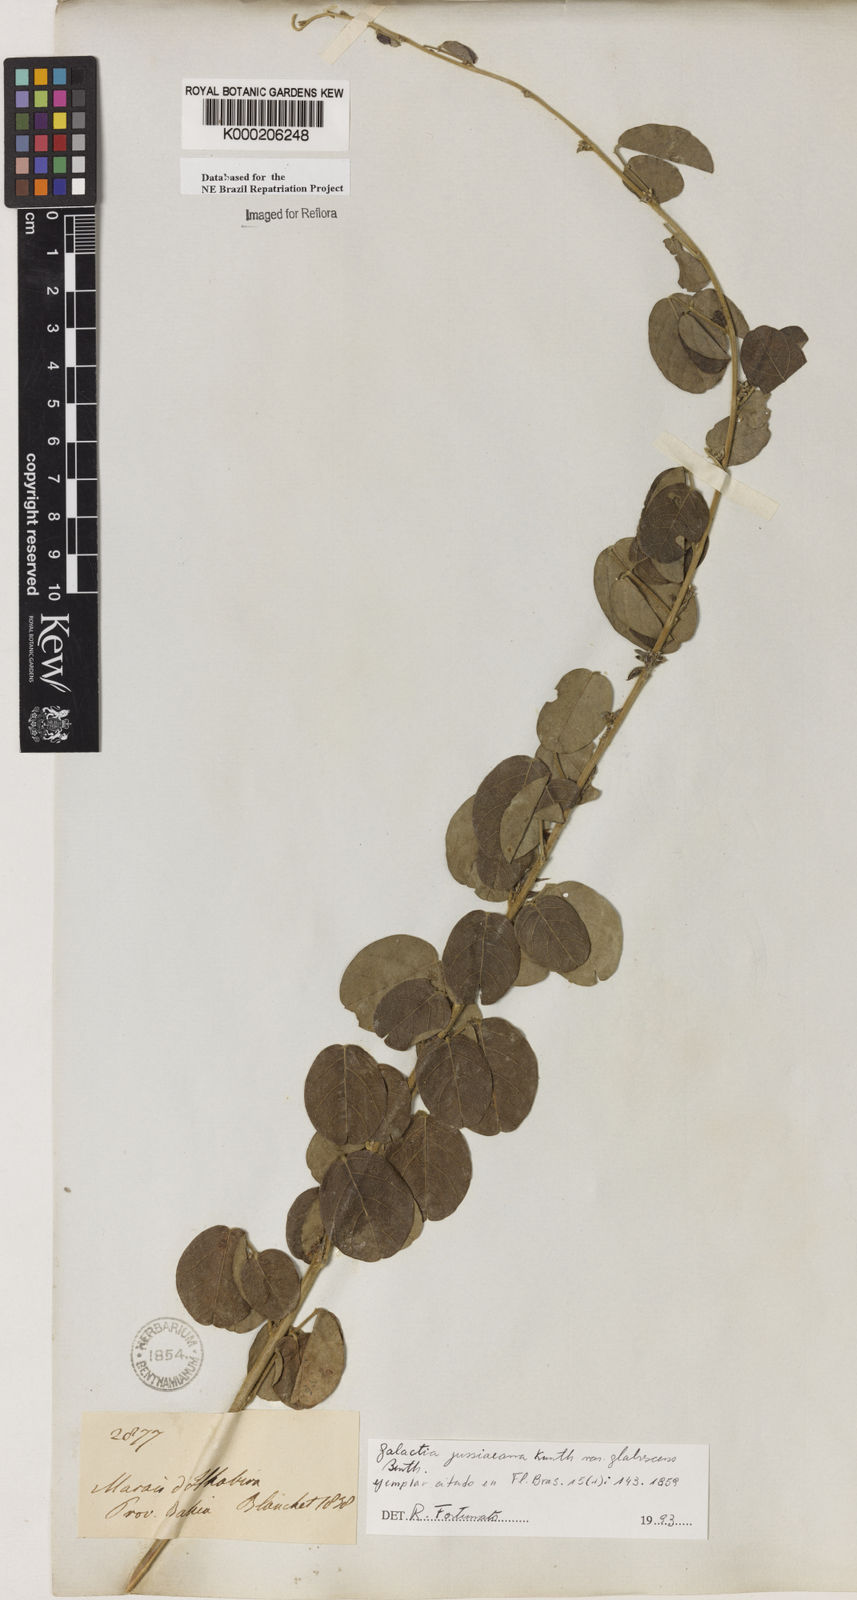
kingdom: Plantae
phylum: Tracheophyta
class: Magnoliopsida
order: Fabales
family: Fabaceae
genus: Galactia
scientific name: Galactia jussiaeana
